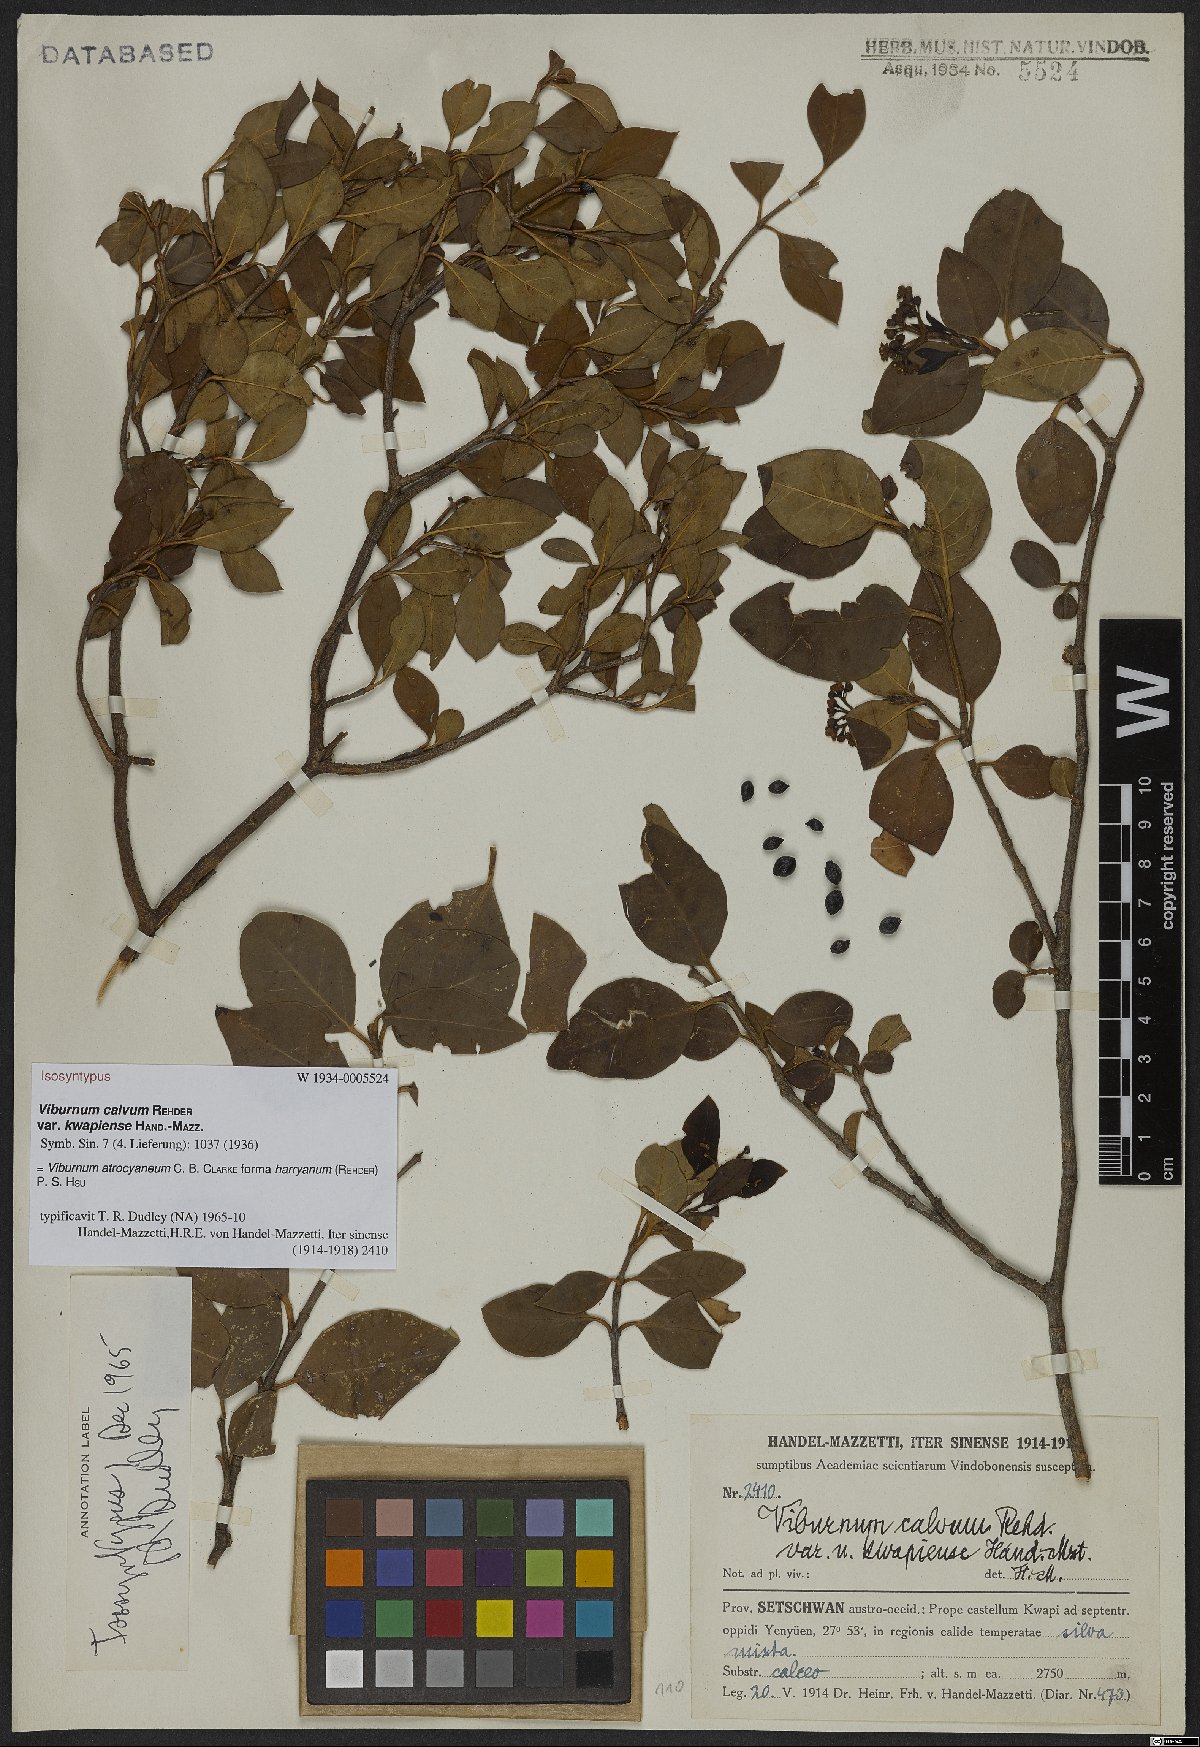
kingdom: Plantae
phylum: Tracheophyta
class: Magnoliopsida
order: Dipsacales
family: Viburnaceae
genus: Viburnum
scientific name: Viburnum atrocyaneum
